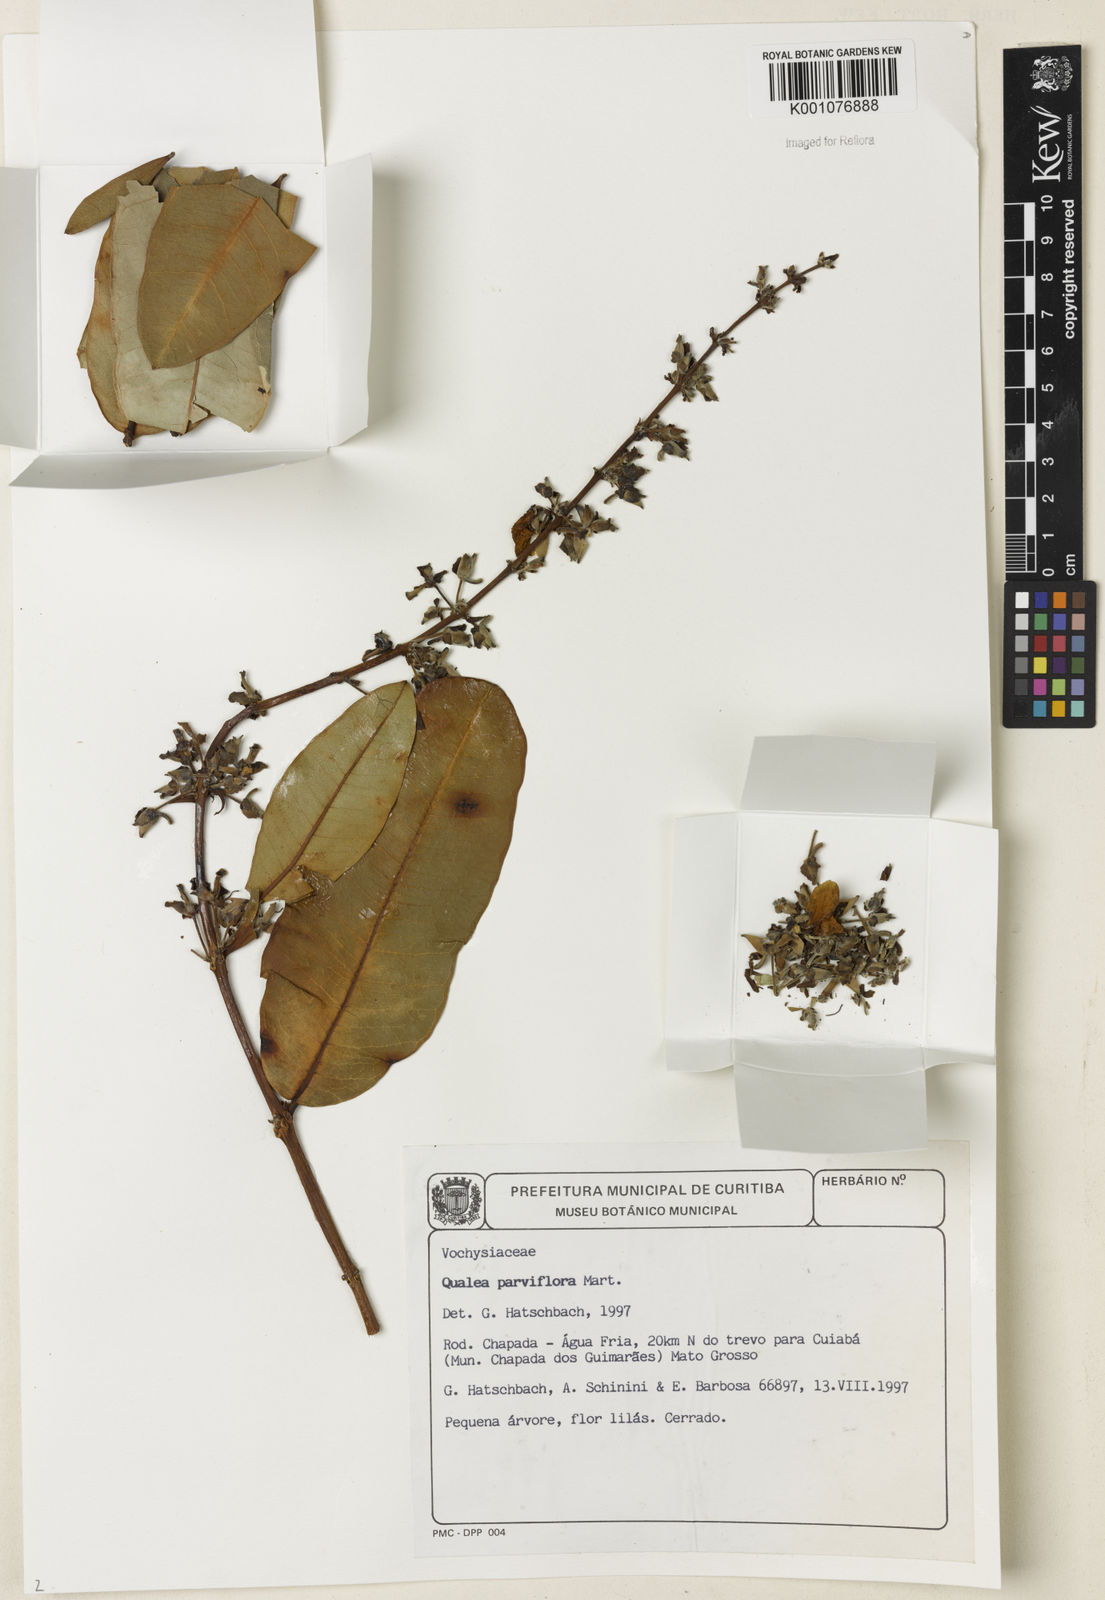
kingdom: Plantae
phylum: Tracheophyta
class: Magnoliopsida
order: Myrtales
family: Vochysiaceae
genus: Qualea
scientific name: Qualea parviflora
